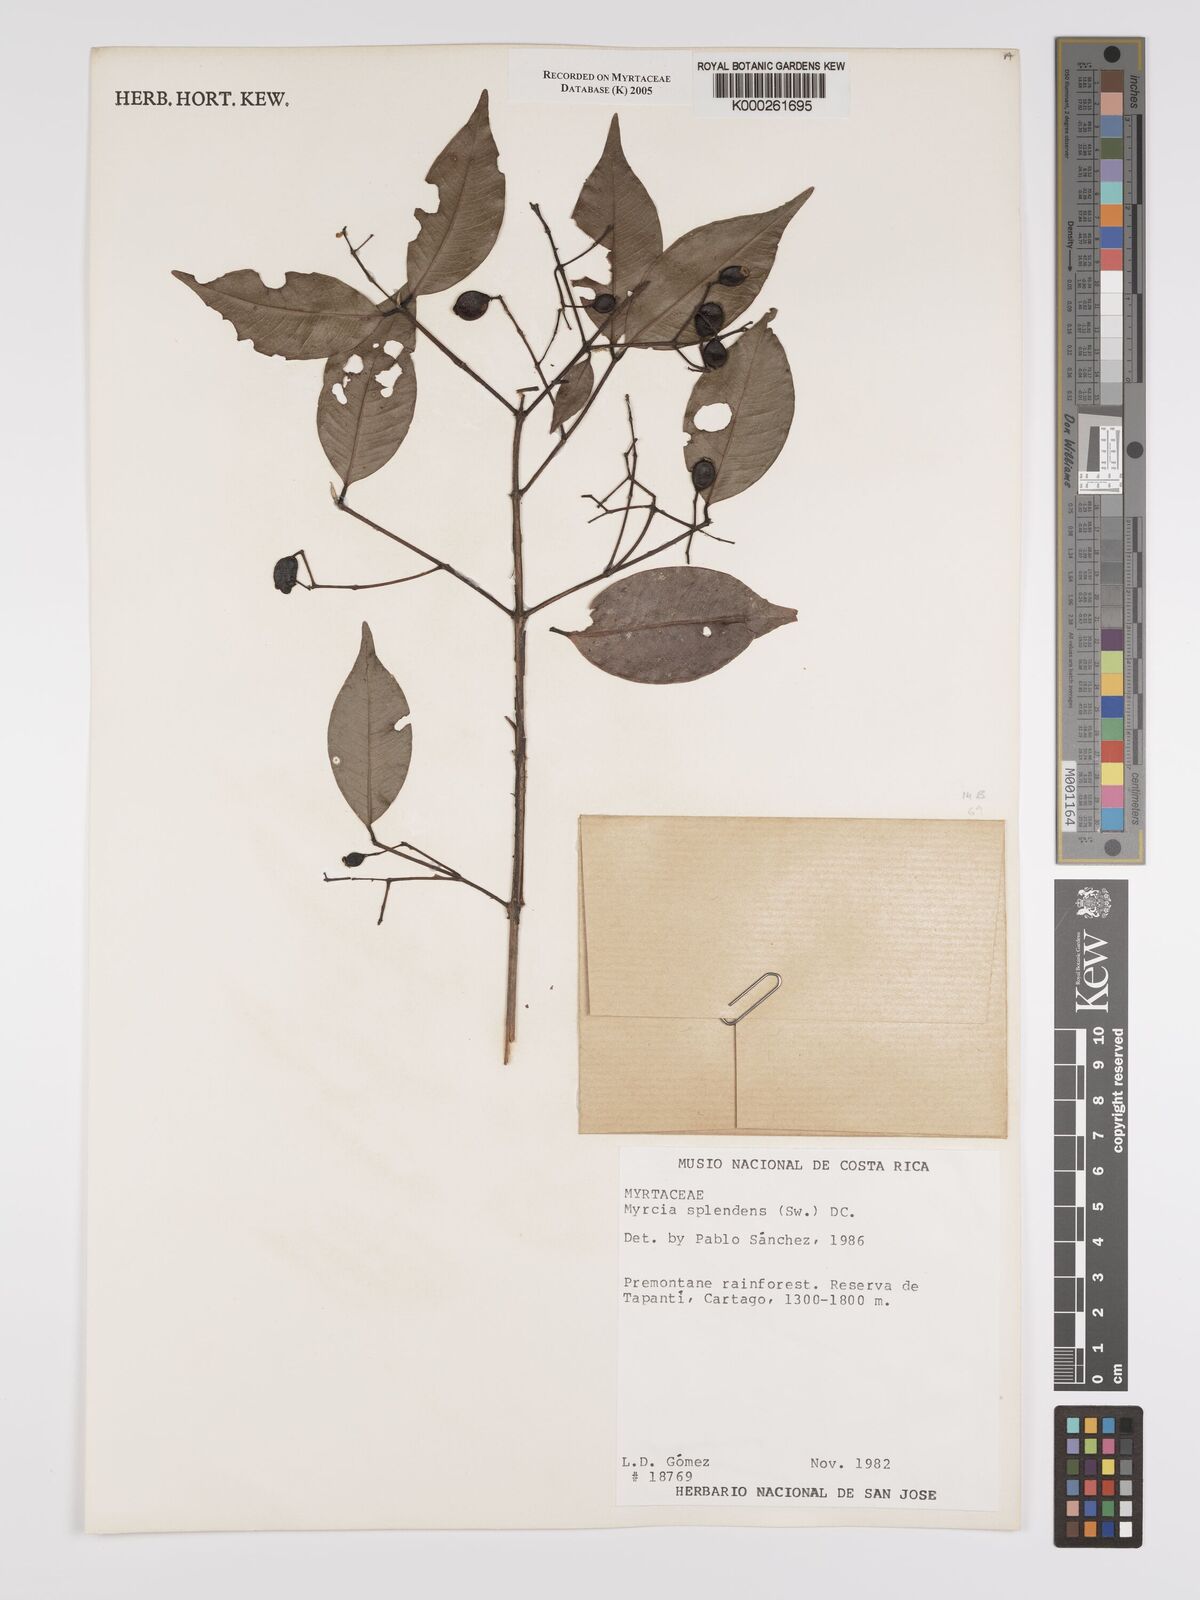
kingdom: Plantae
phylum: Tracheophyta
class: Magnoliopsida
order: Myrtales
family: Myrtaceae
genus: Myrcia
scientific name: Myrcia splendens
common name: Surinam cherry
